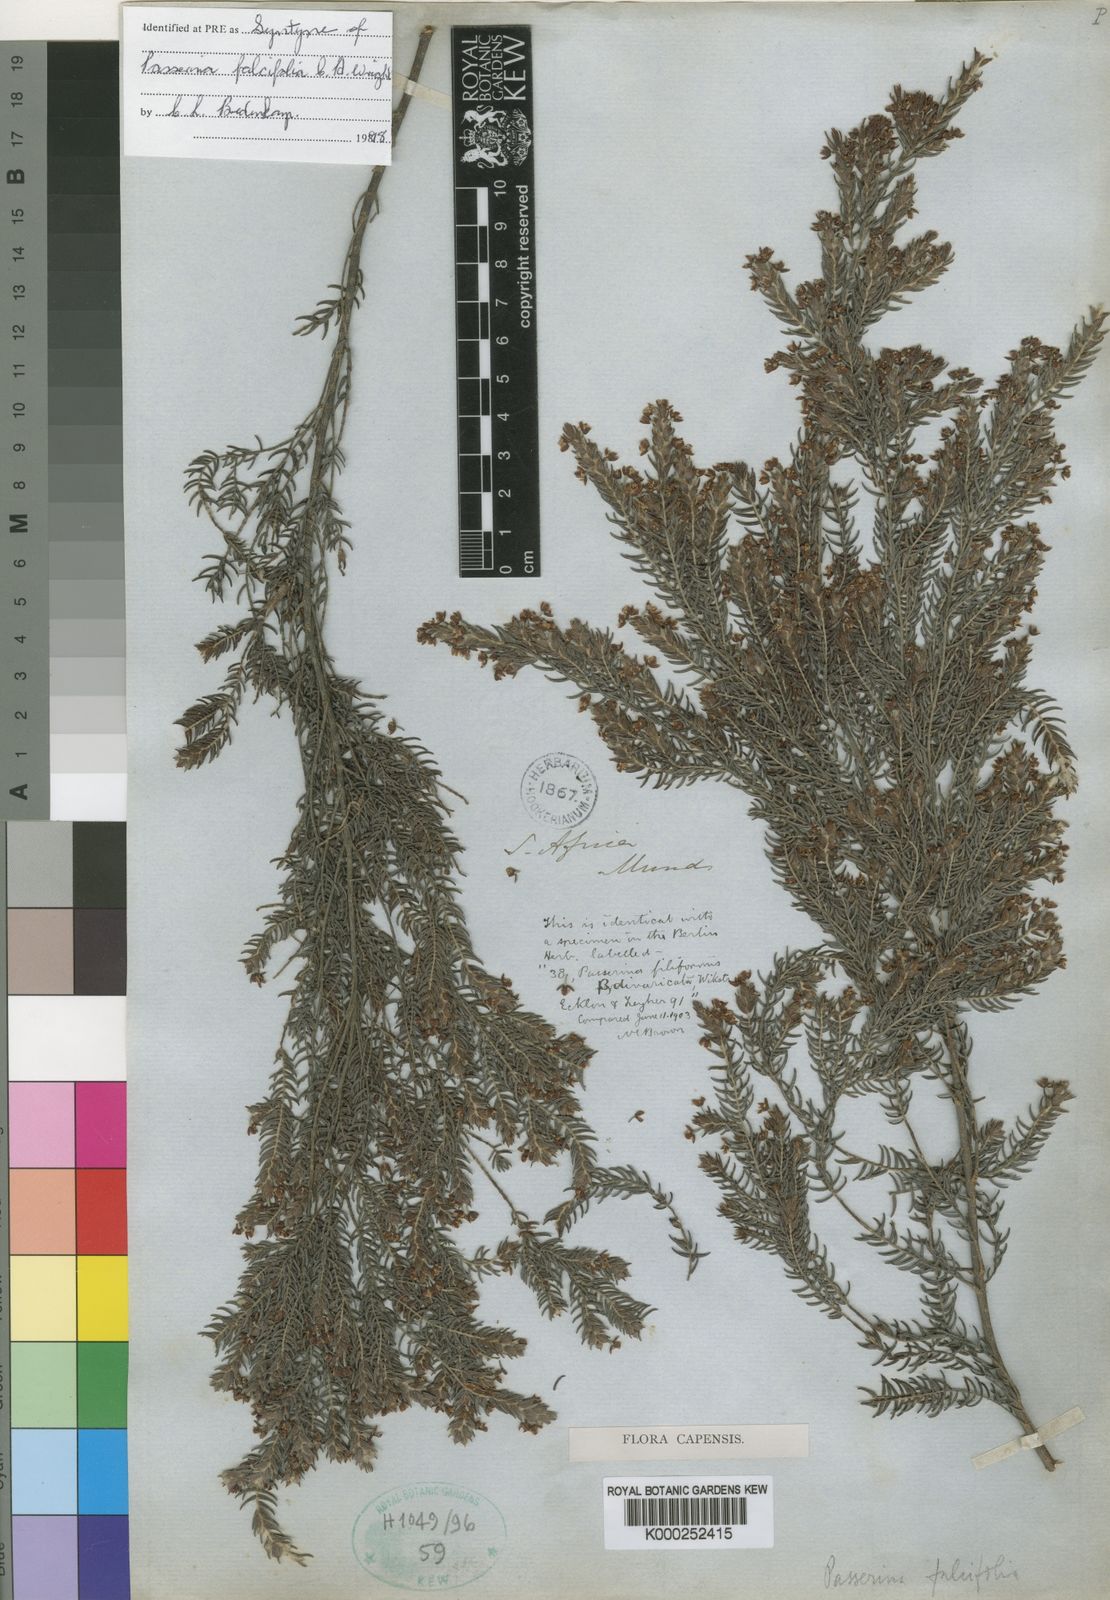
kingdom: Plantae
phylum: Tracheophyta
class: Magnoliopsida
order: Malvales
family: Thymelaeaceae
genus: Passerina
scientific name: Passerina falcifolia
